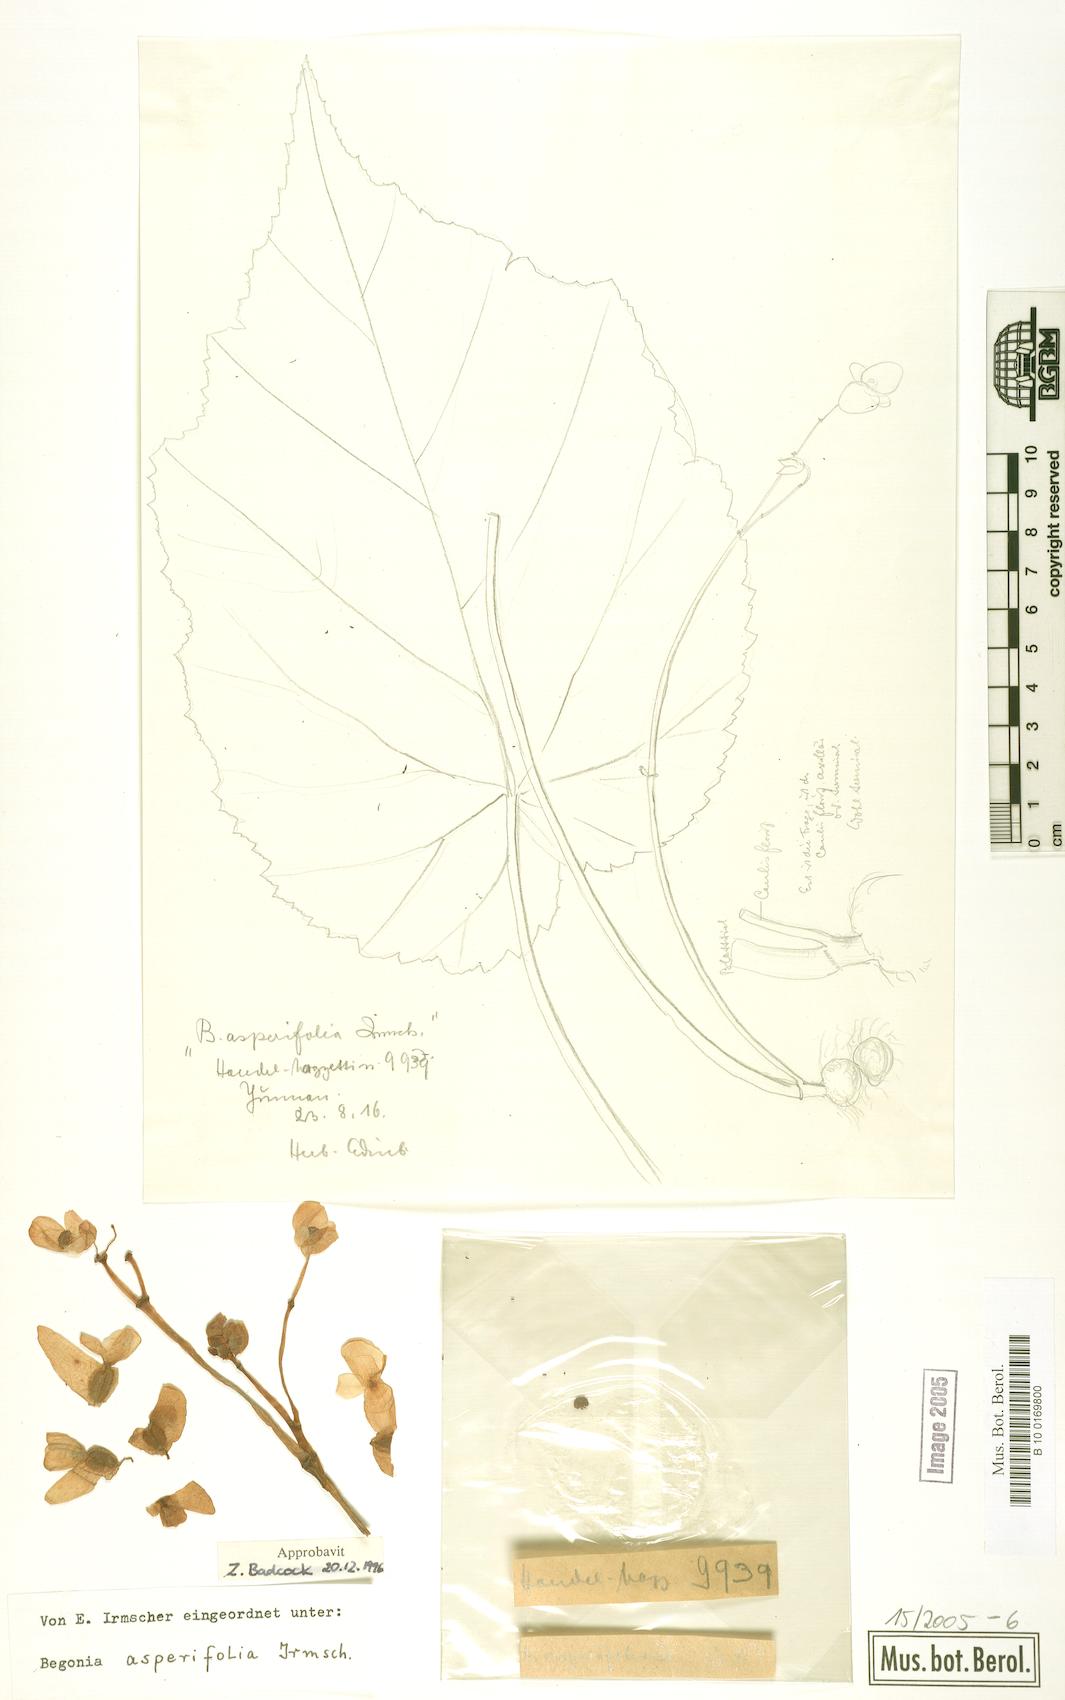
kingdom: Plantae
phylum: Tracheophyta
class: Magnoliopsida
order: Cucurbitales
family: Begoniaceae
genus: Begonia
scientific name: Begonia asperifolia
